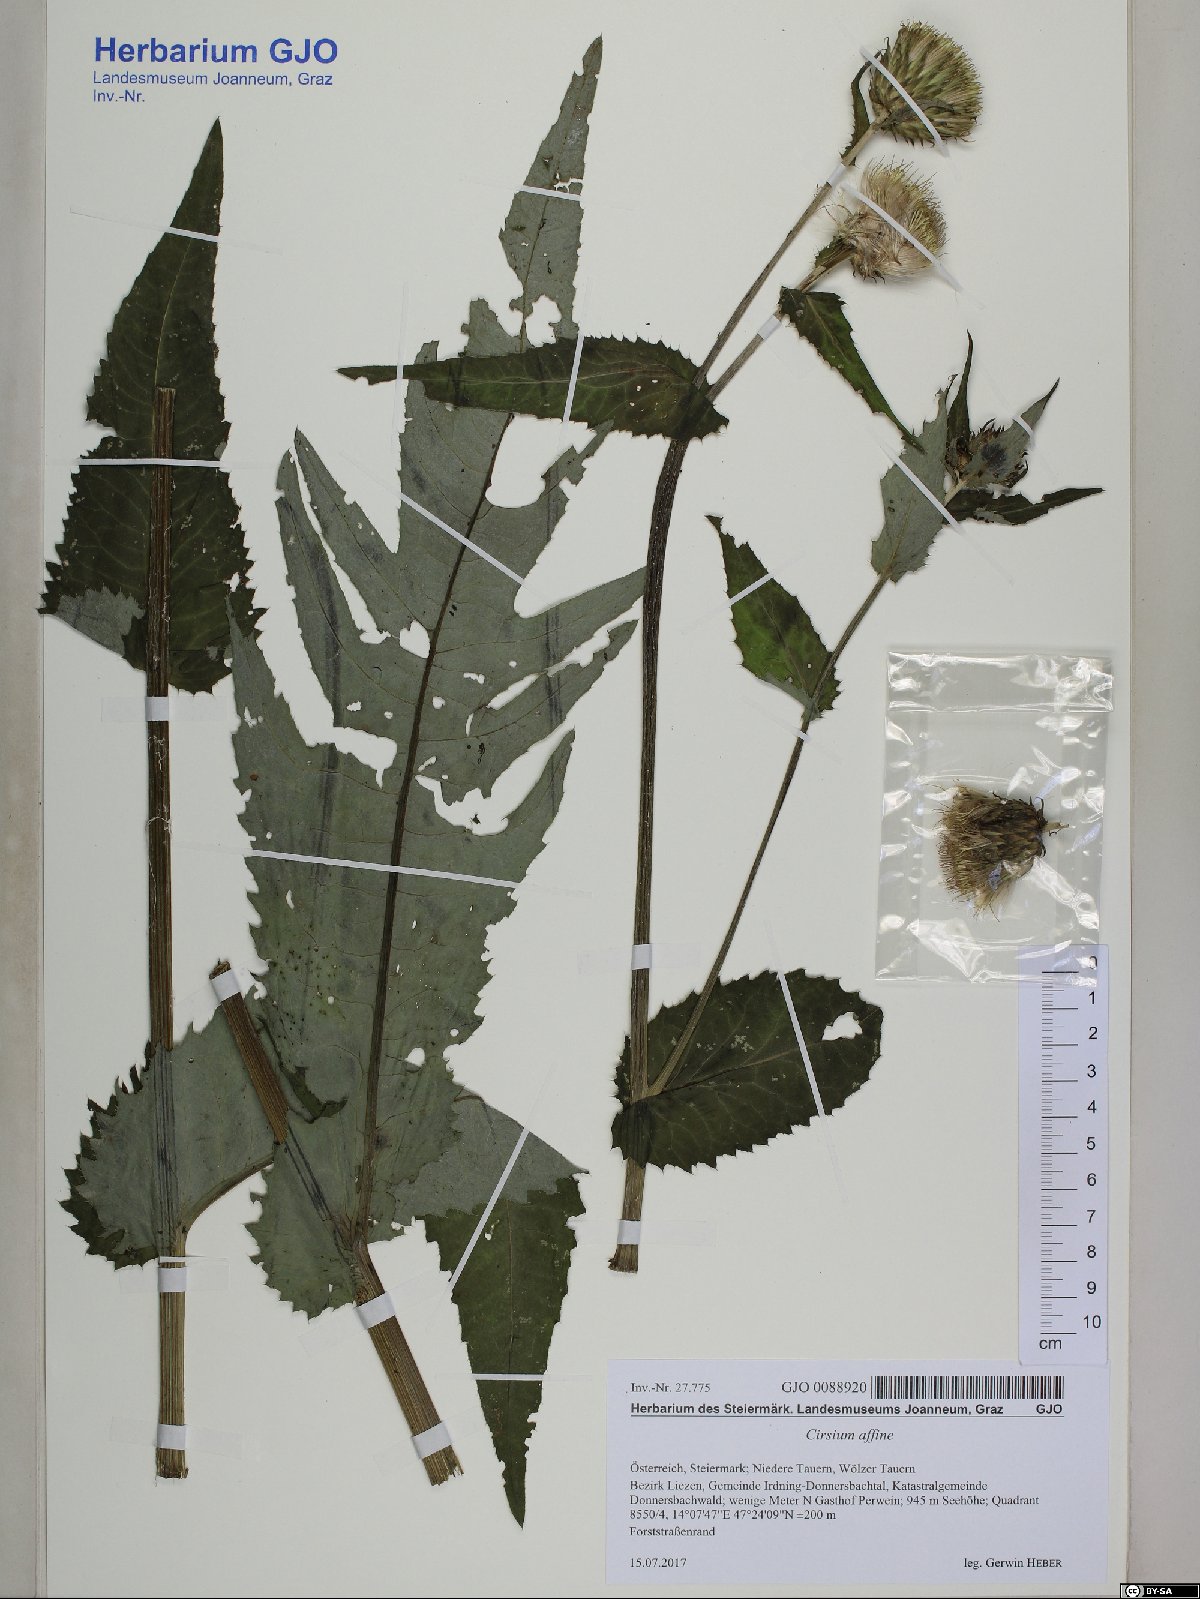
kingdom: Plantae
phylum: Tracheophyta
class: Magnoliopsida
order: Asterales
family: Asteraceae
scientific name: Asteraceae
